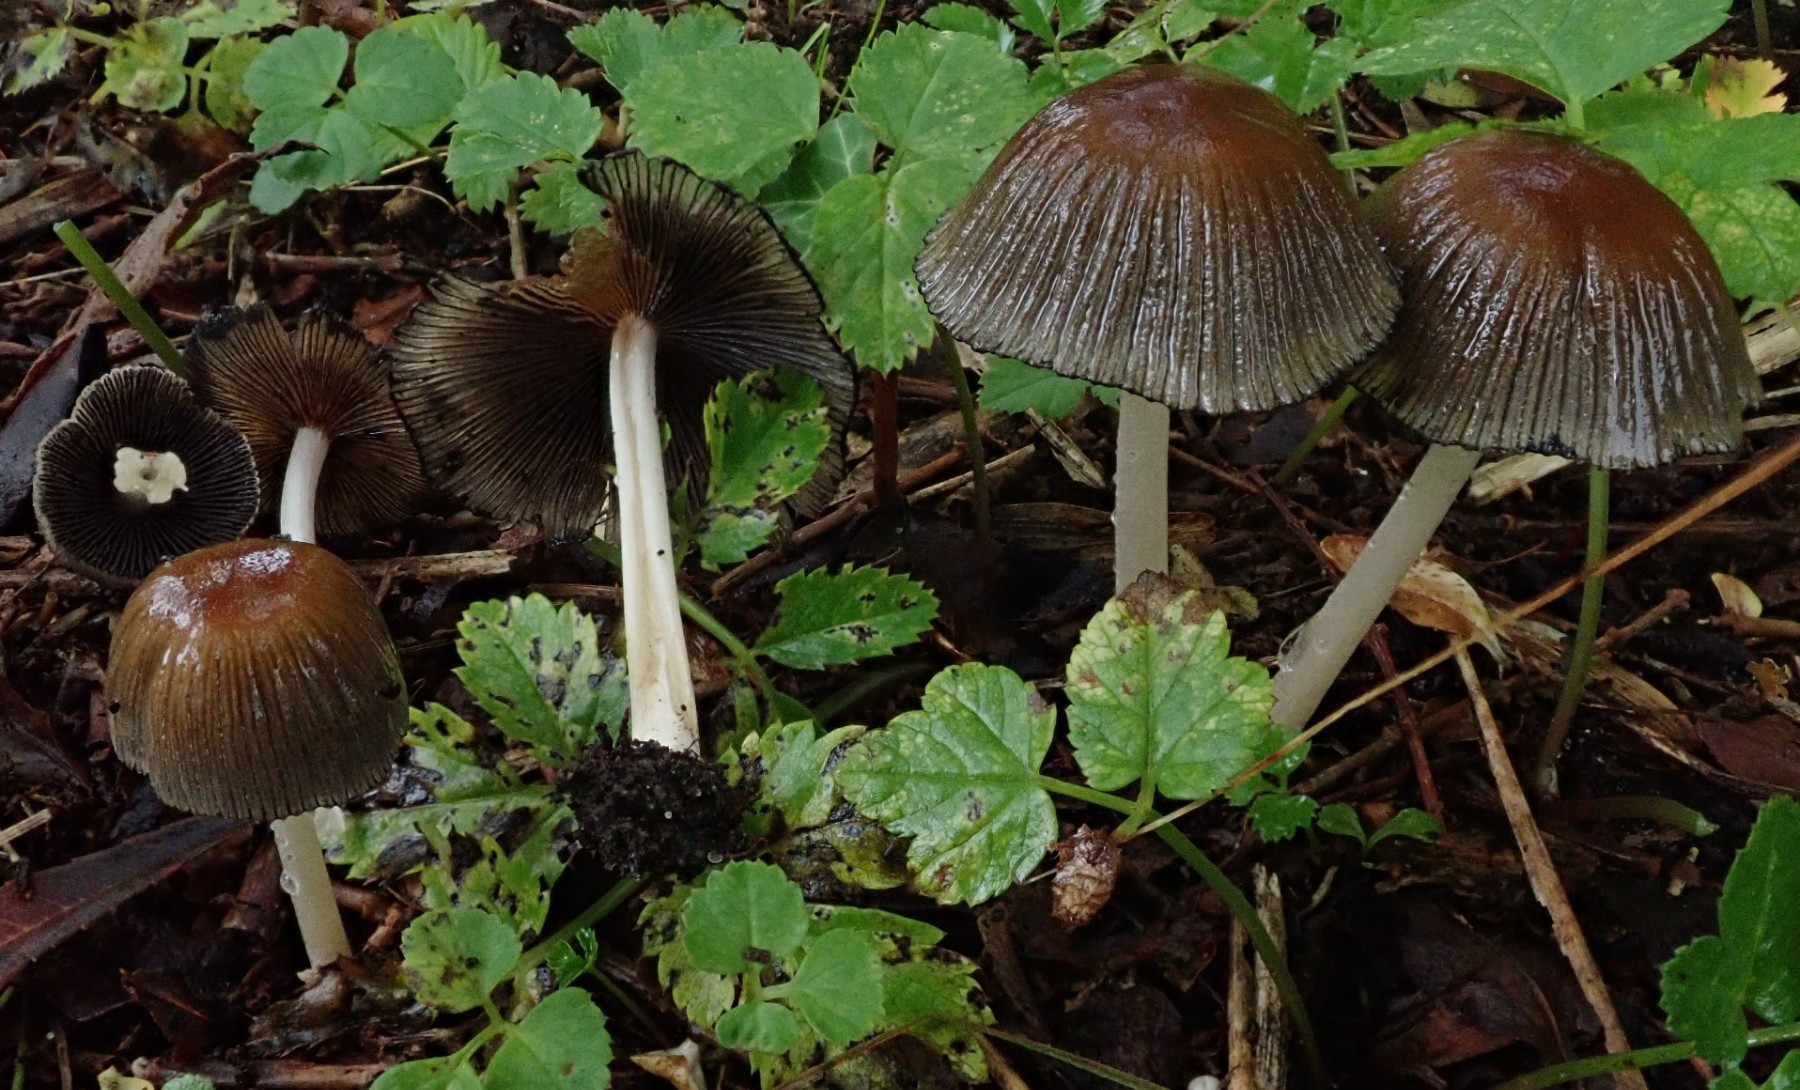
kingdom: Fungi
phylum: Basidiomycota
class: Agaricomycetes
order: Agaricales
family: Psathyrellaceae
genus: Coprinellus
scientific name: Coprinellus
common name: blækhat
